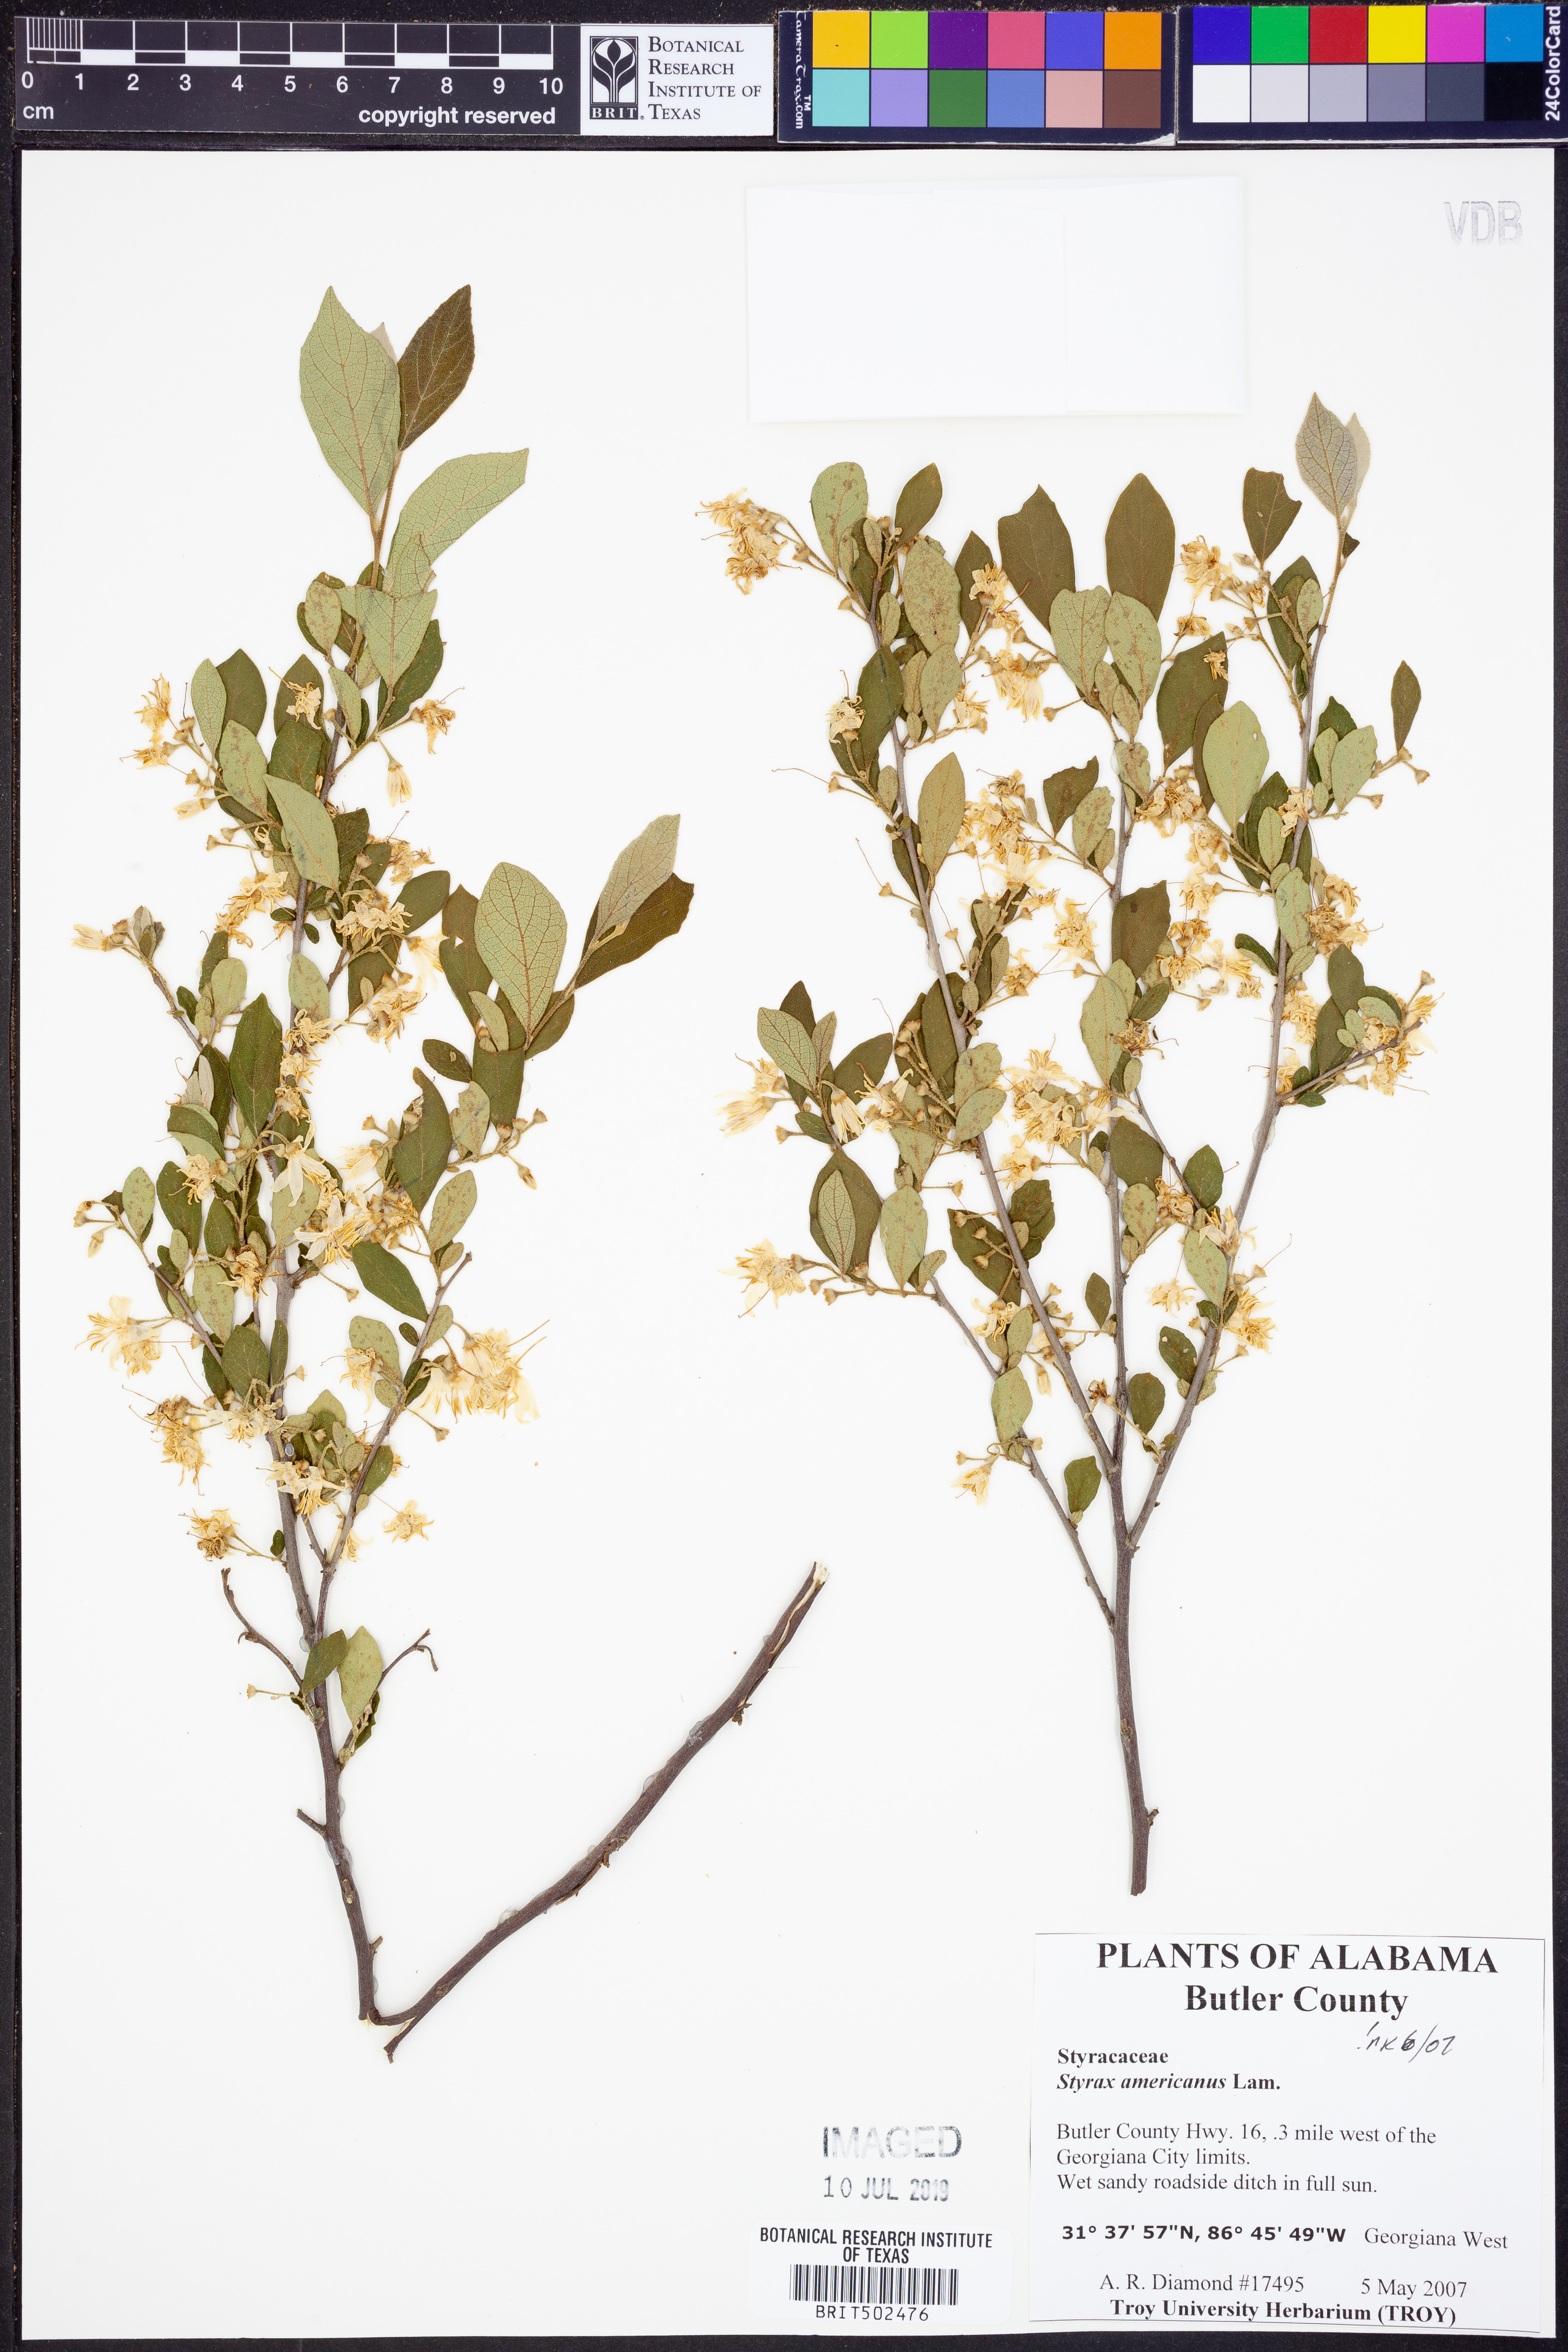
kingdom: Plantae
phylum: Tracheophyta
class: Magnoliopsida
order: Ericales
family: Styracaceae
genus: Styrax
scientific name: Styrax americanus
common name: American snowbell
